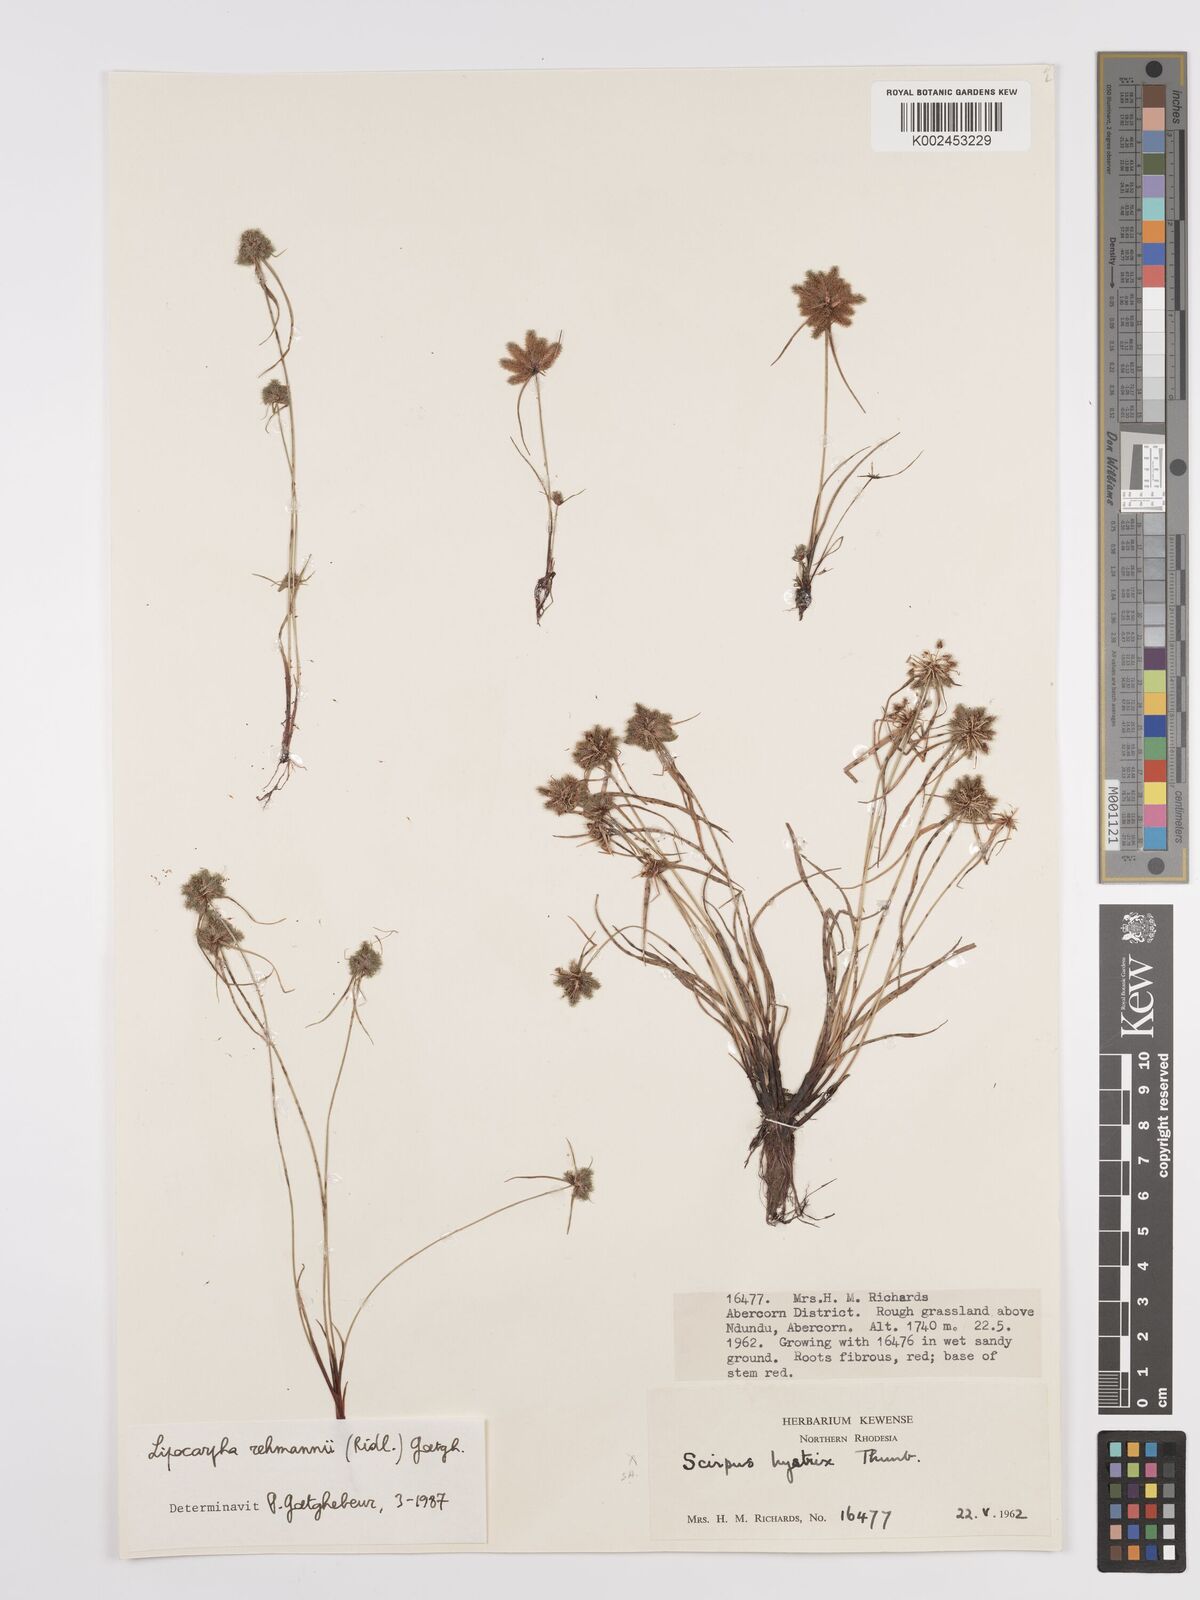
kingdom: Plantae
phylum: Tracheophyta
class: Liliopsida
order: Poales
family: Cyperaceae
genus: Cyperus
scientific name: Cyperus sanguinolentus
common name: Purpleglume flatsedge
